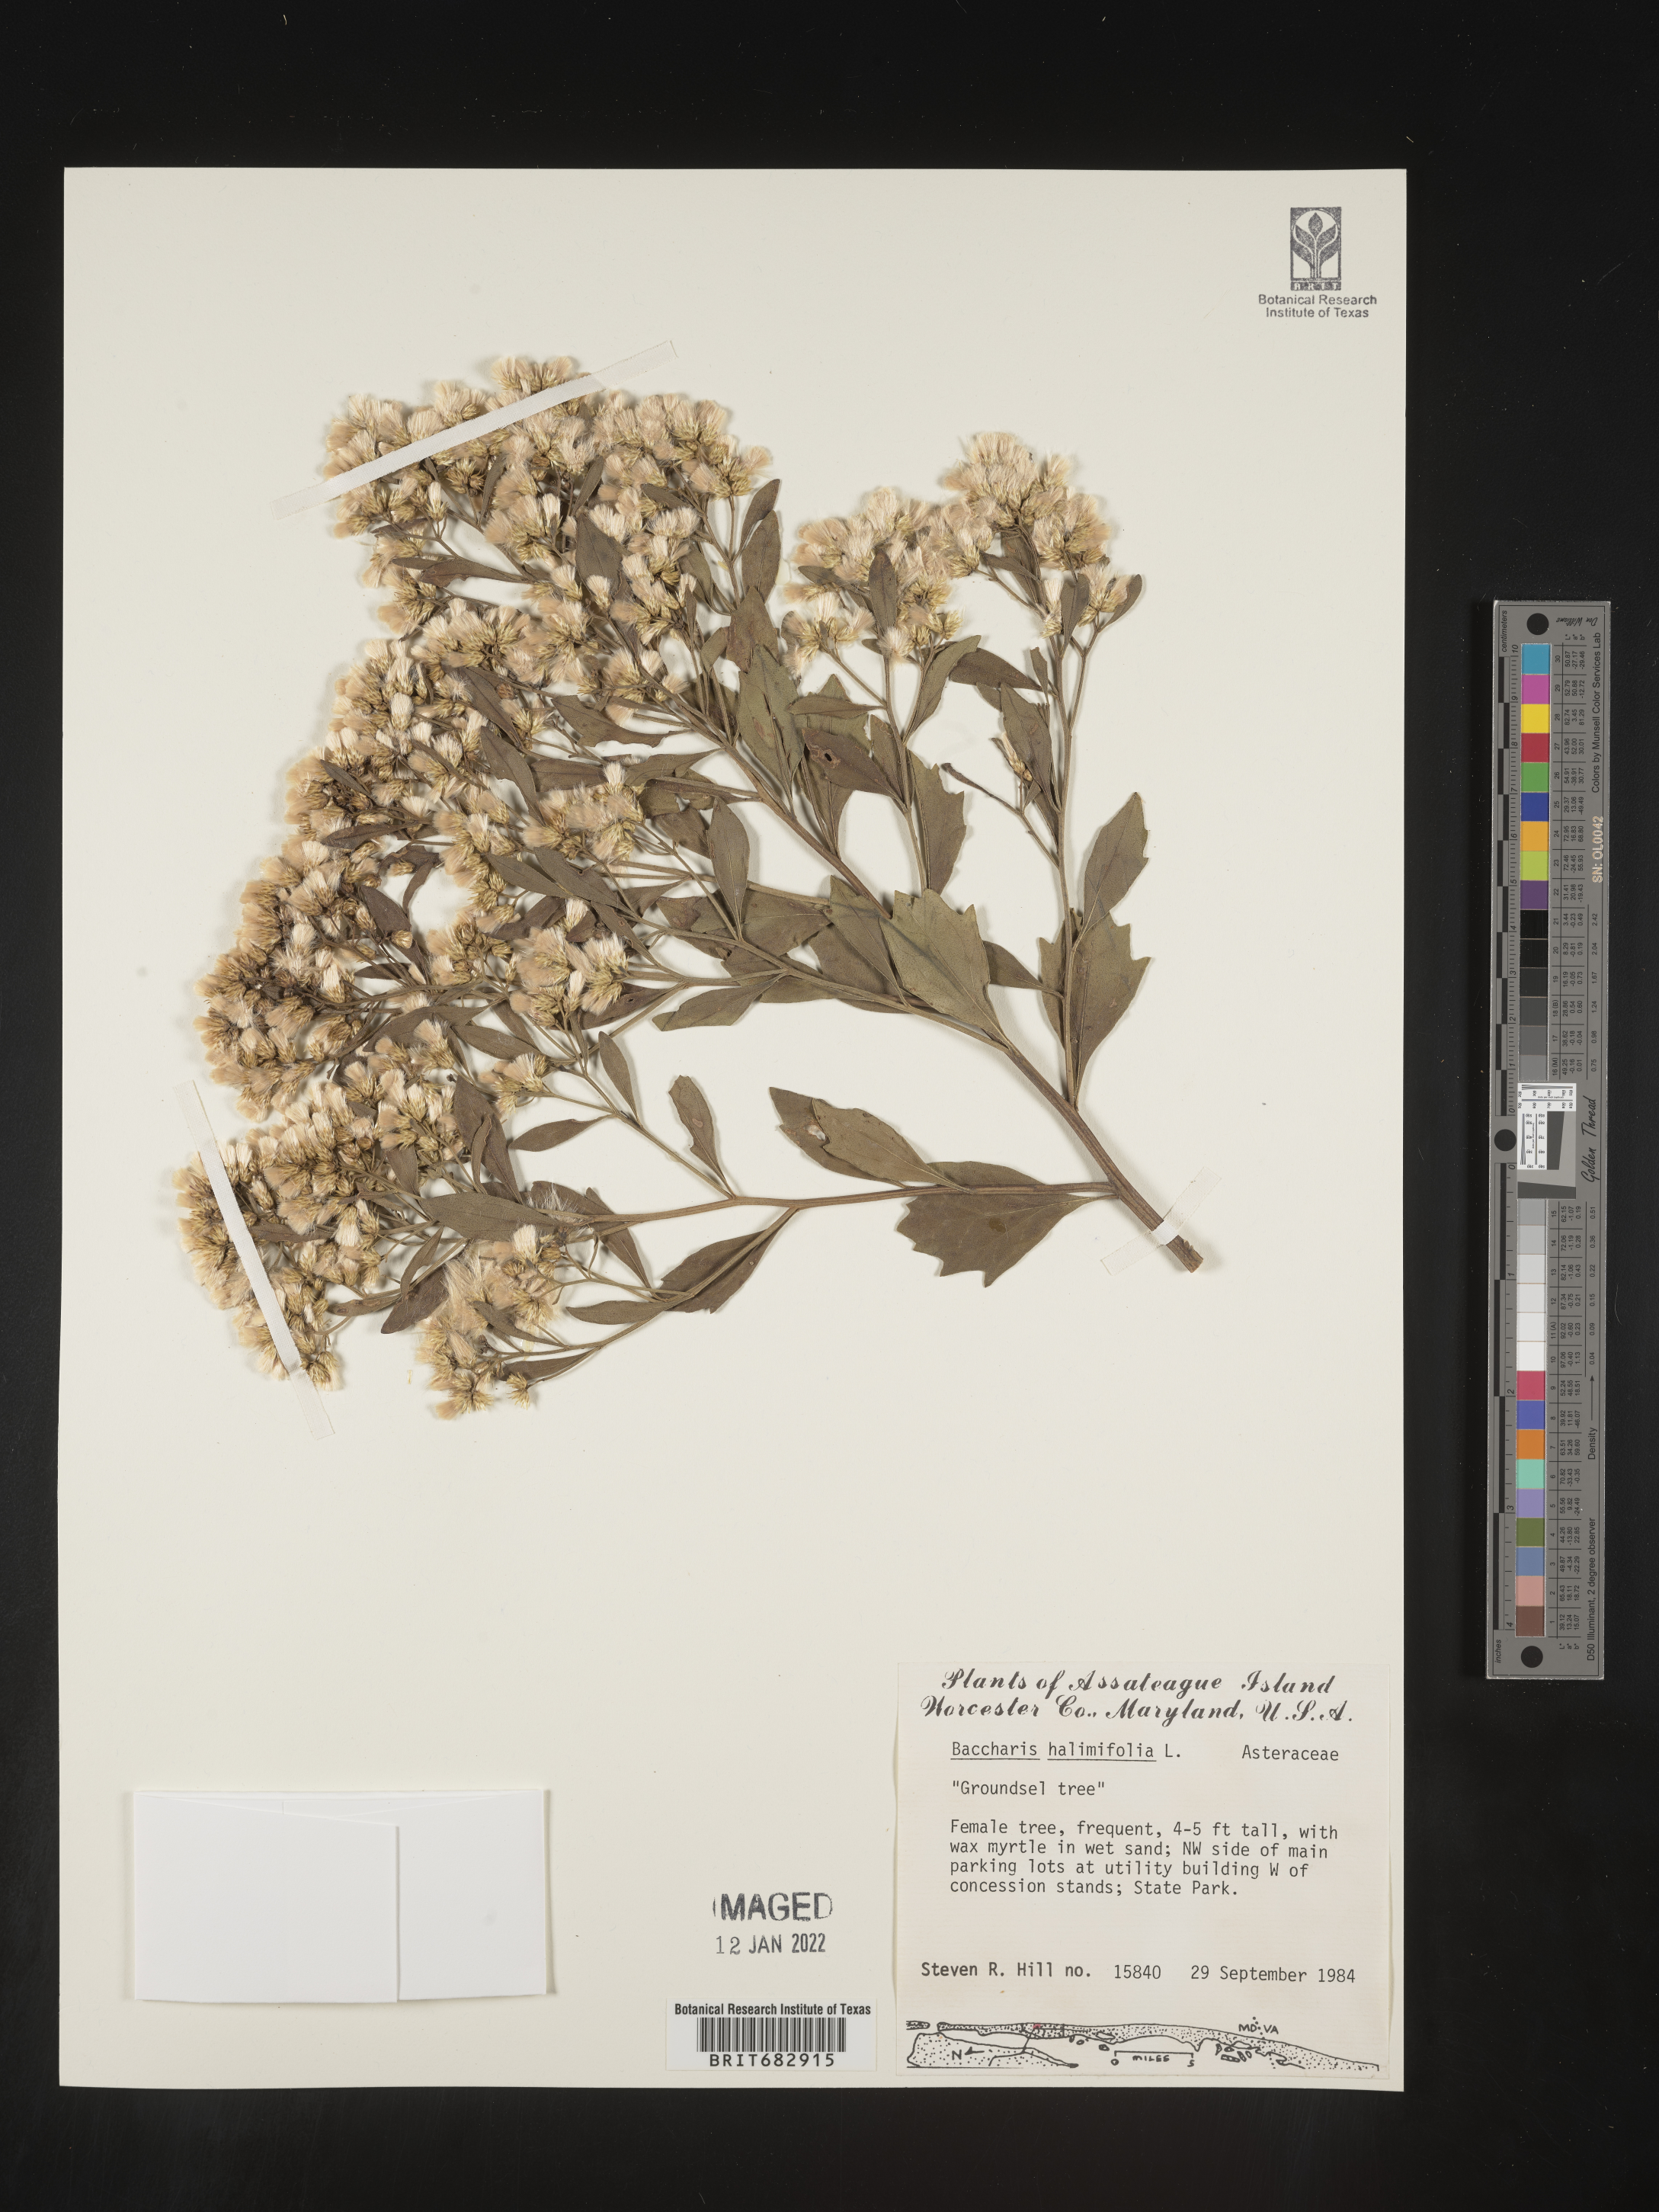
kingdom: Plantae
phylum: Tracheophyta
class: Magnoliopsida
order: Asterales
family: Asteraceae
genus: Nidorella
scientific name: Nidorella ivifolia
